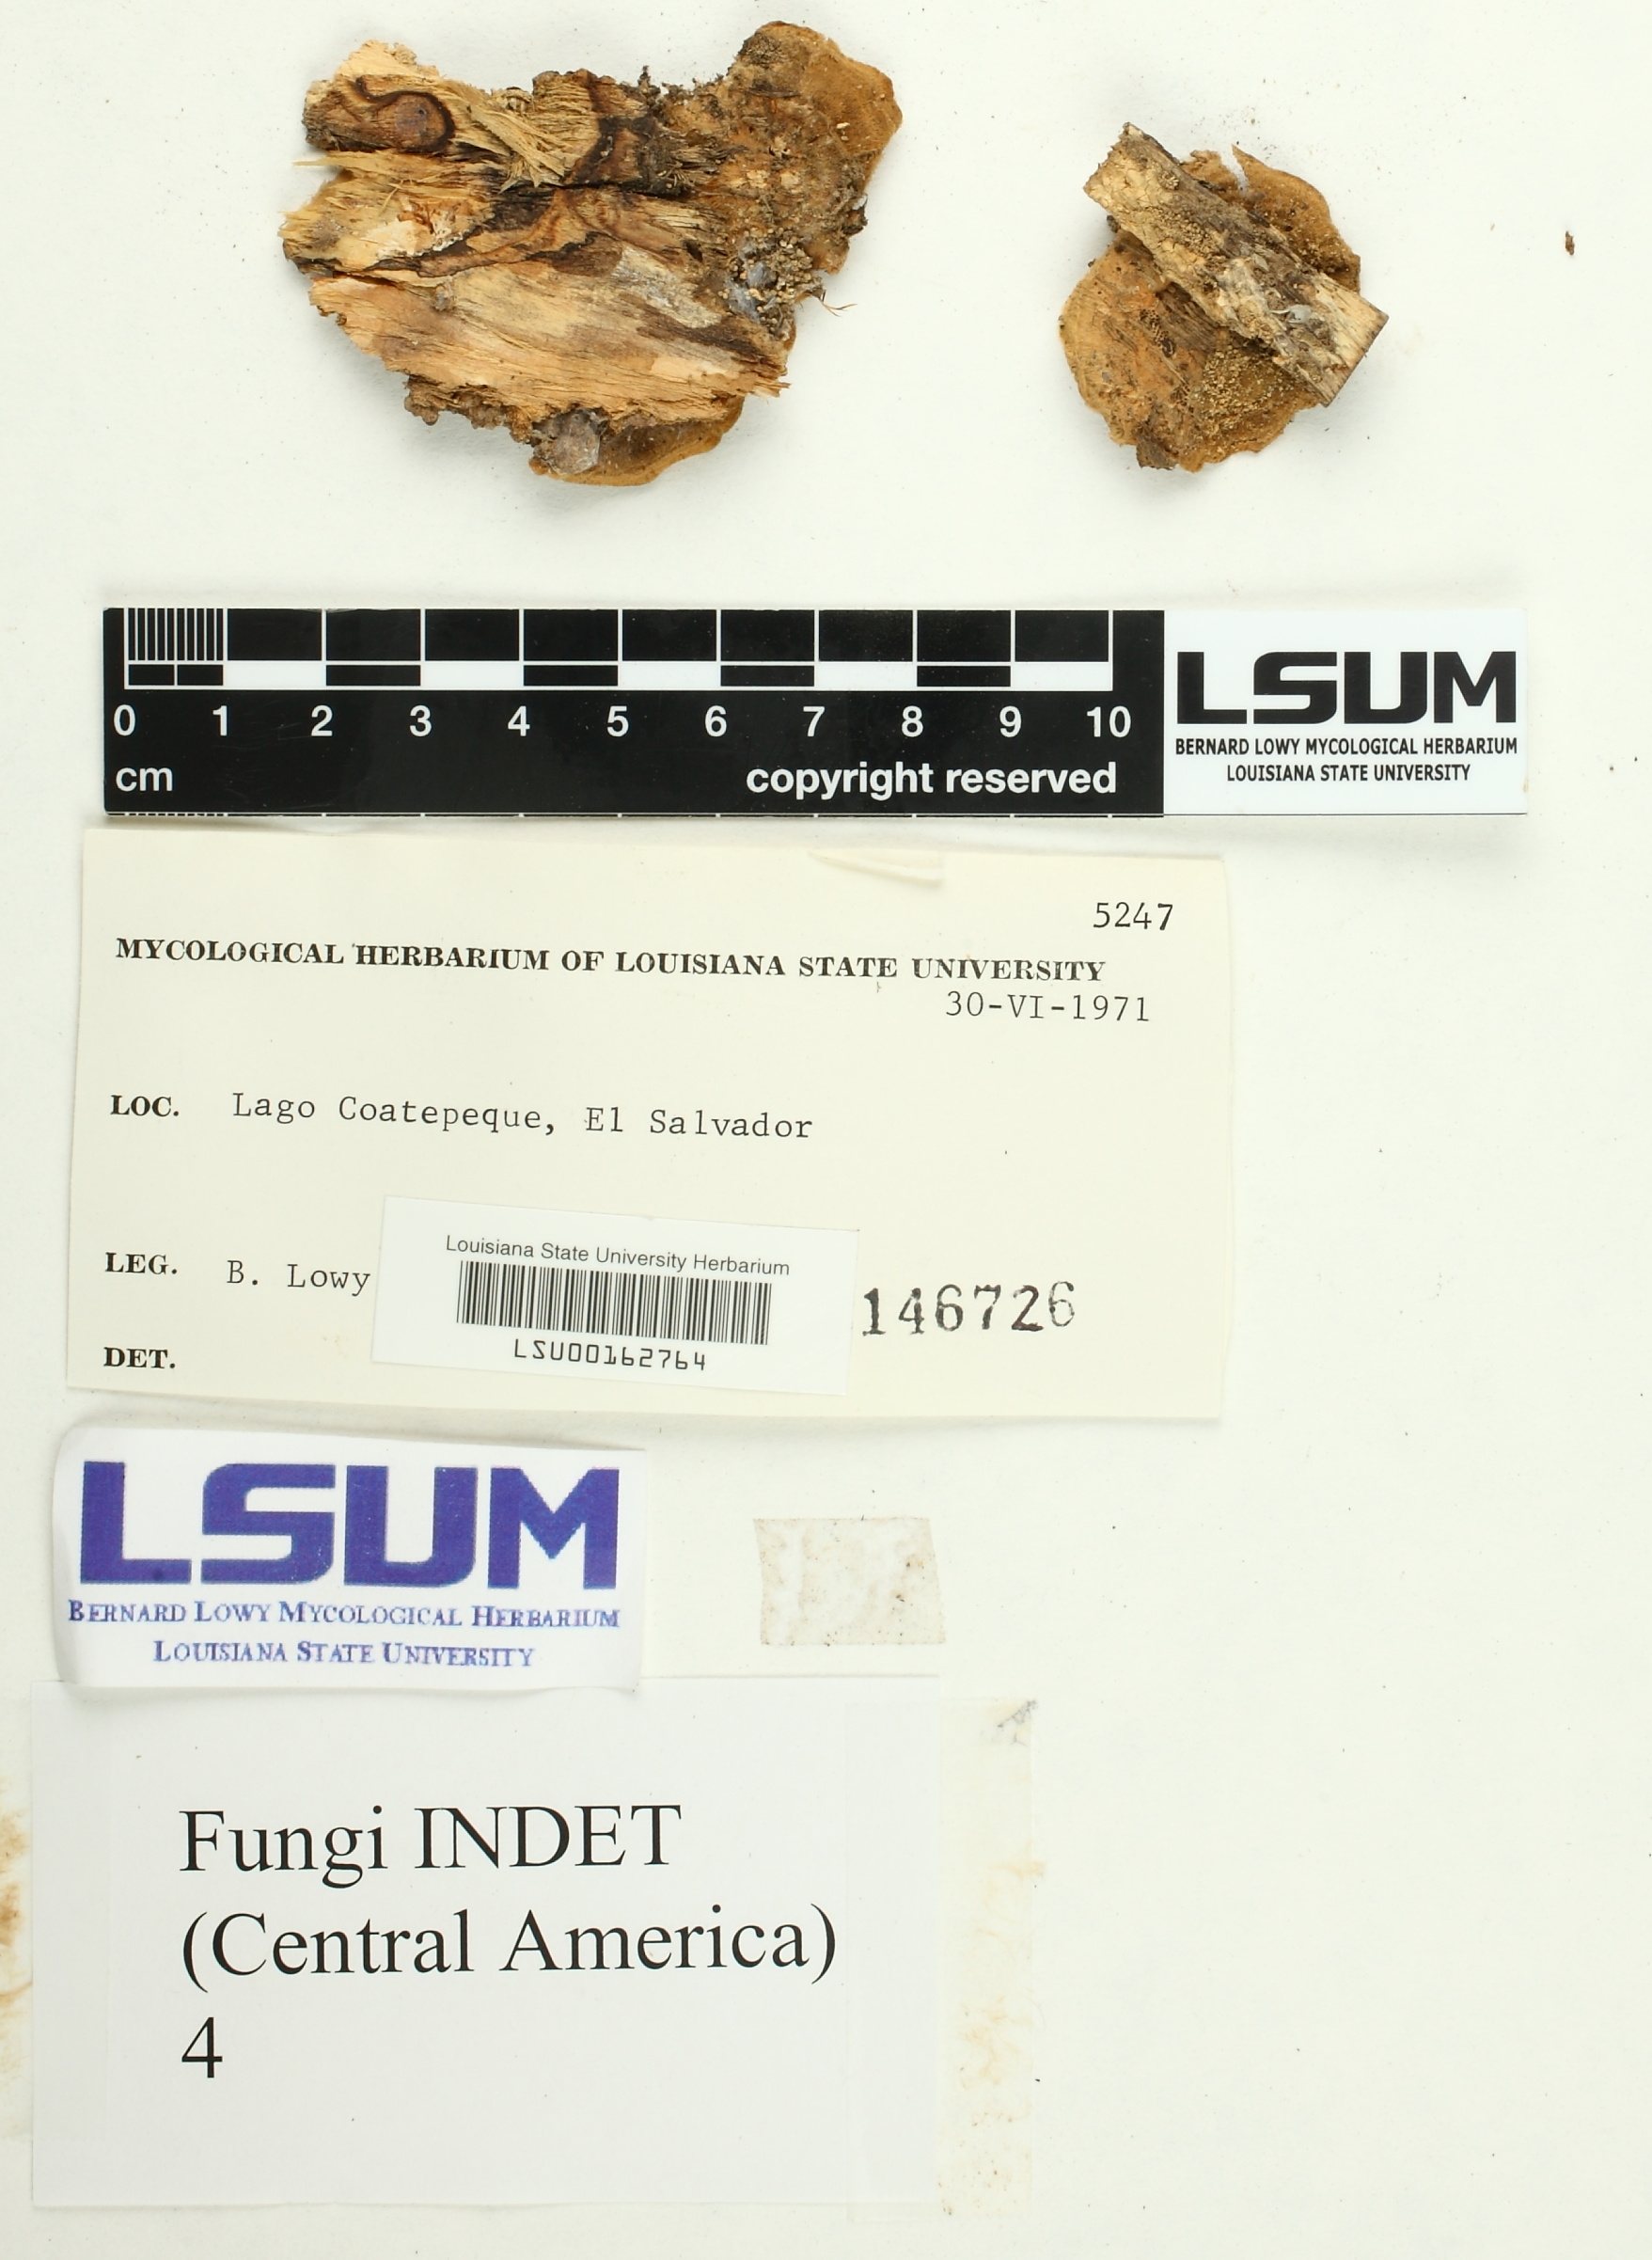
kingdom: Fungi
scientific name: Fungi
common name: Fungi
